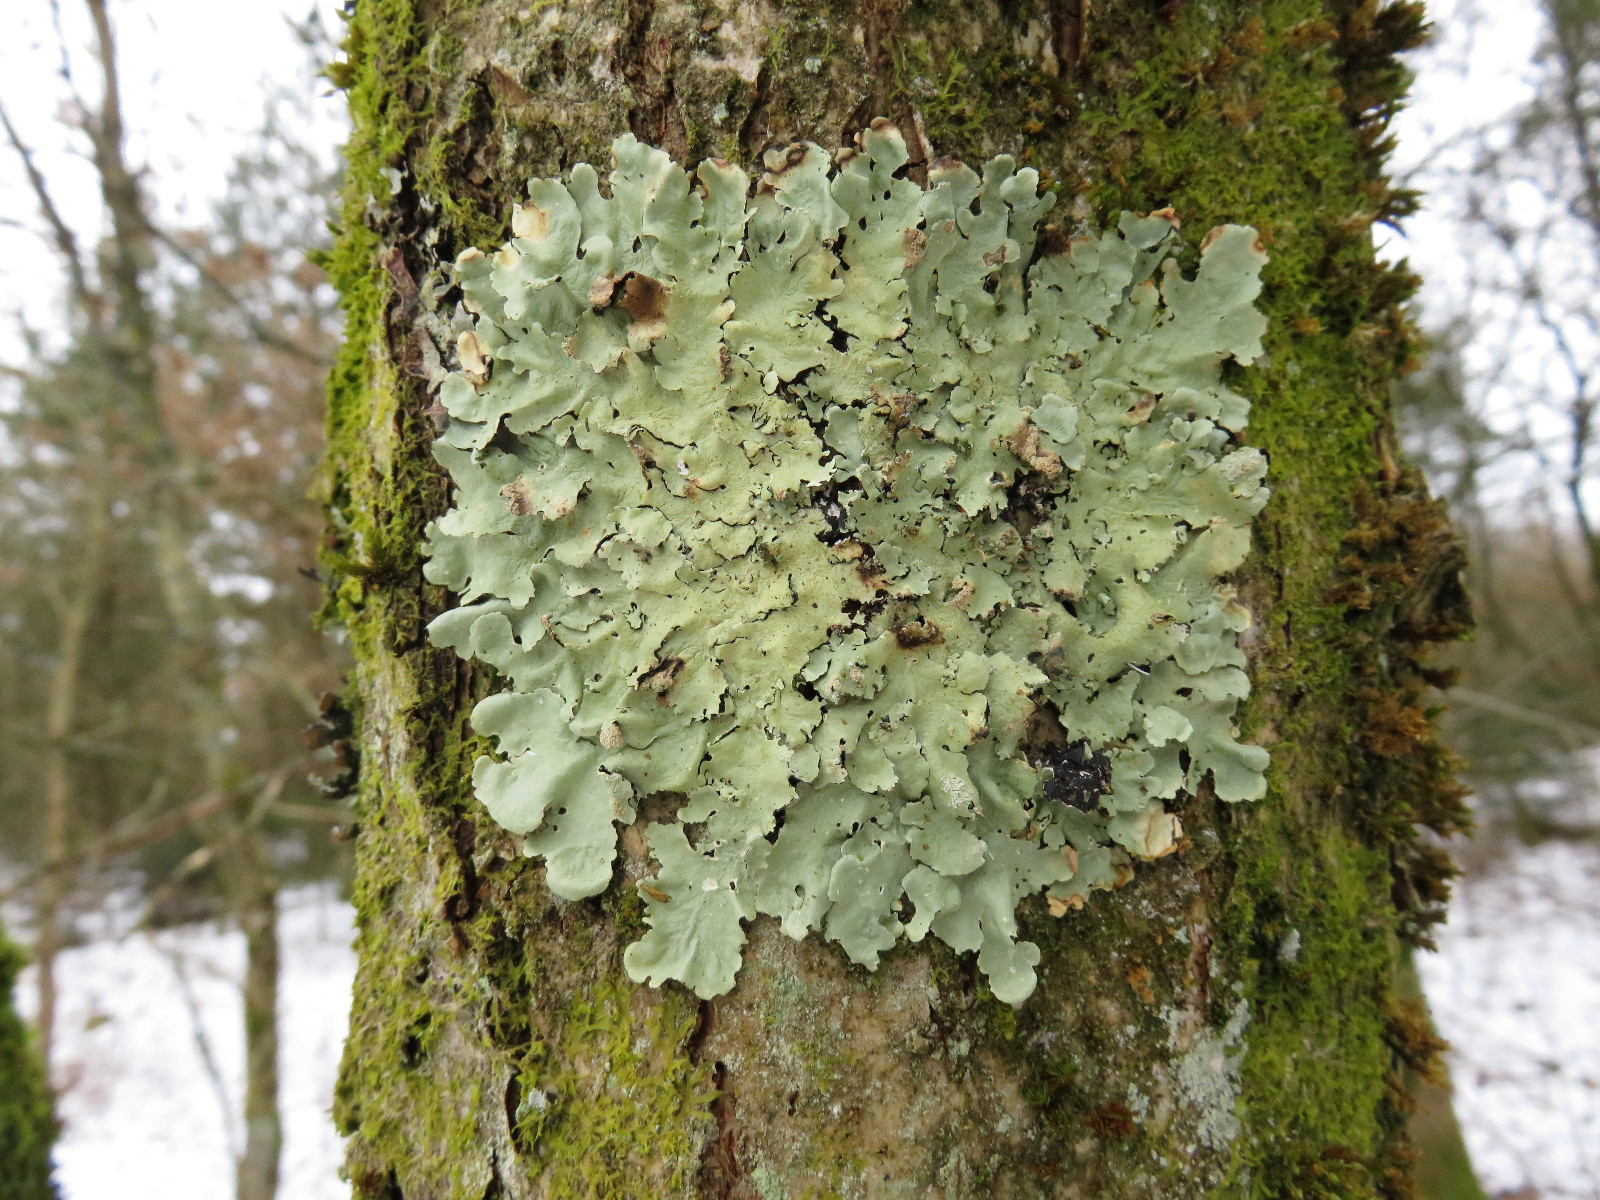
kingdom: Fungi
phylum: Ascomycota
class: Lecanoromycetes
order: Lecanorales
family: Parmeliaceae
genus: Flavoparmelia
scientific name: Flavoparmelia caperata
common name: gulgrøn skållav
